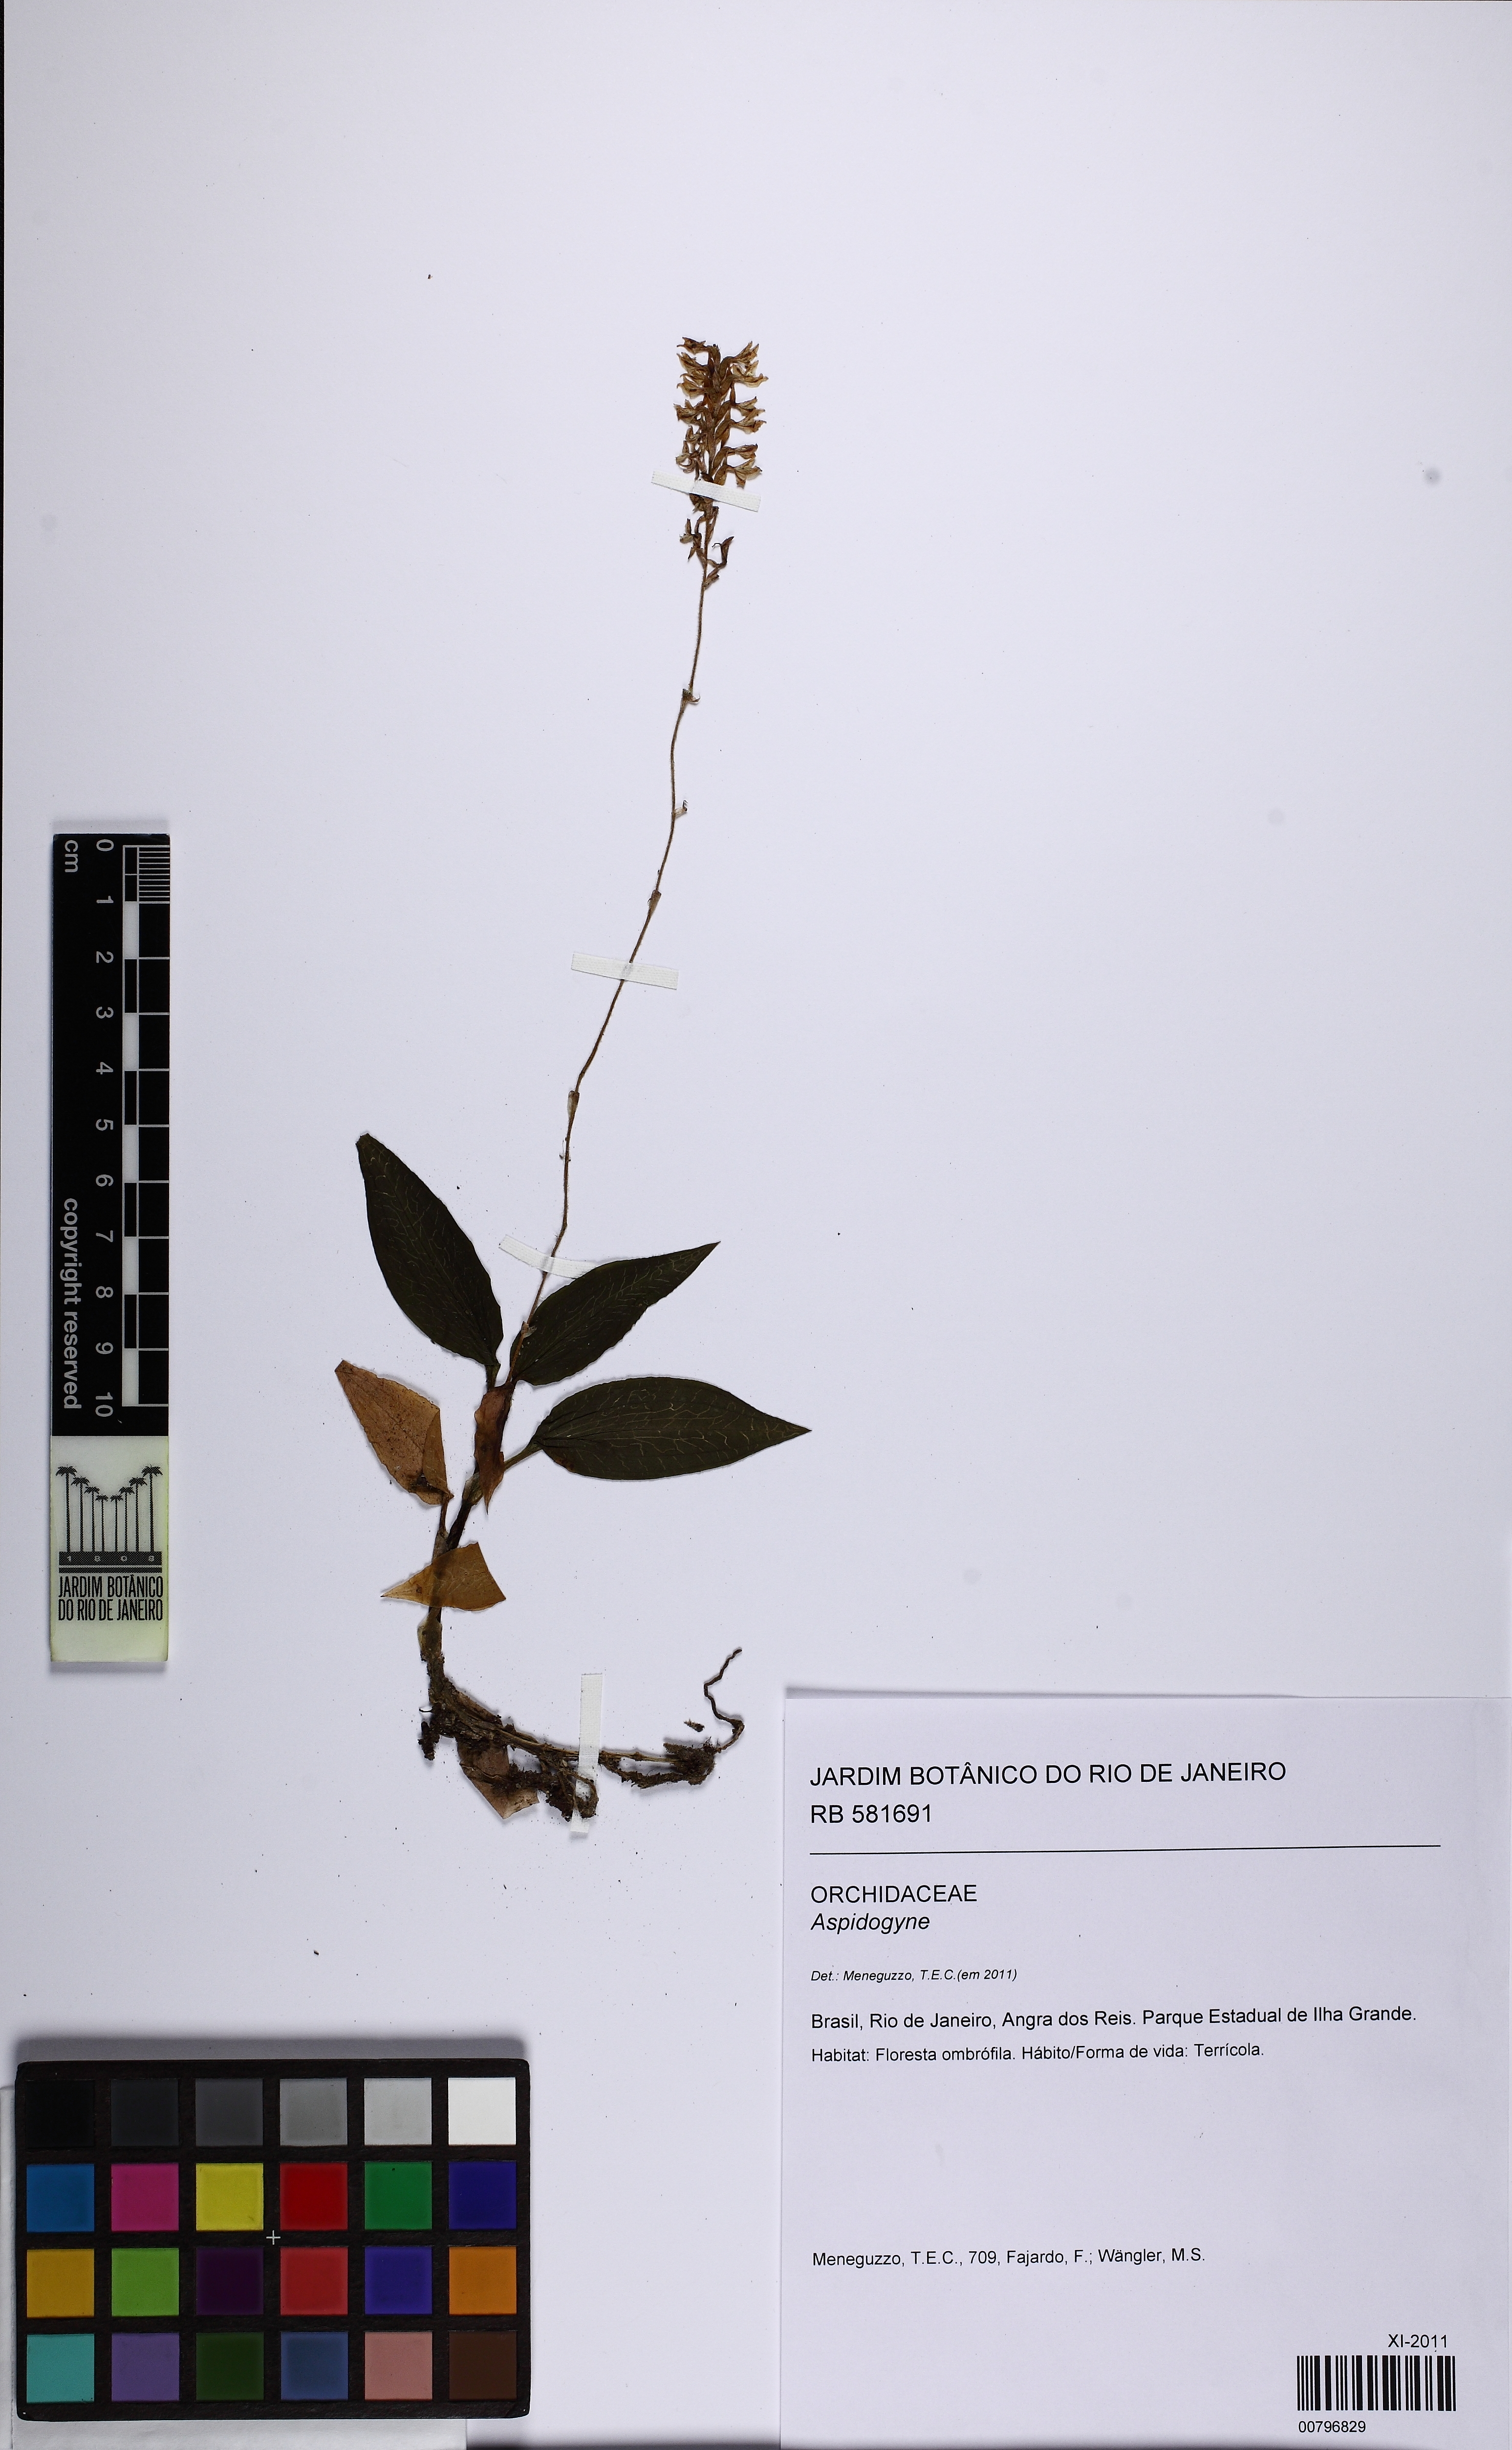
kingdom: Plantae
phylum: Tracheophyta
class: Liliopsida
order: Asparagales
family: Orchidaceae
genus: Aspidogyne
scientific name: Aspidogyne
